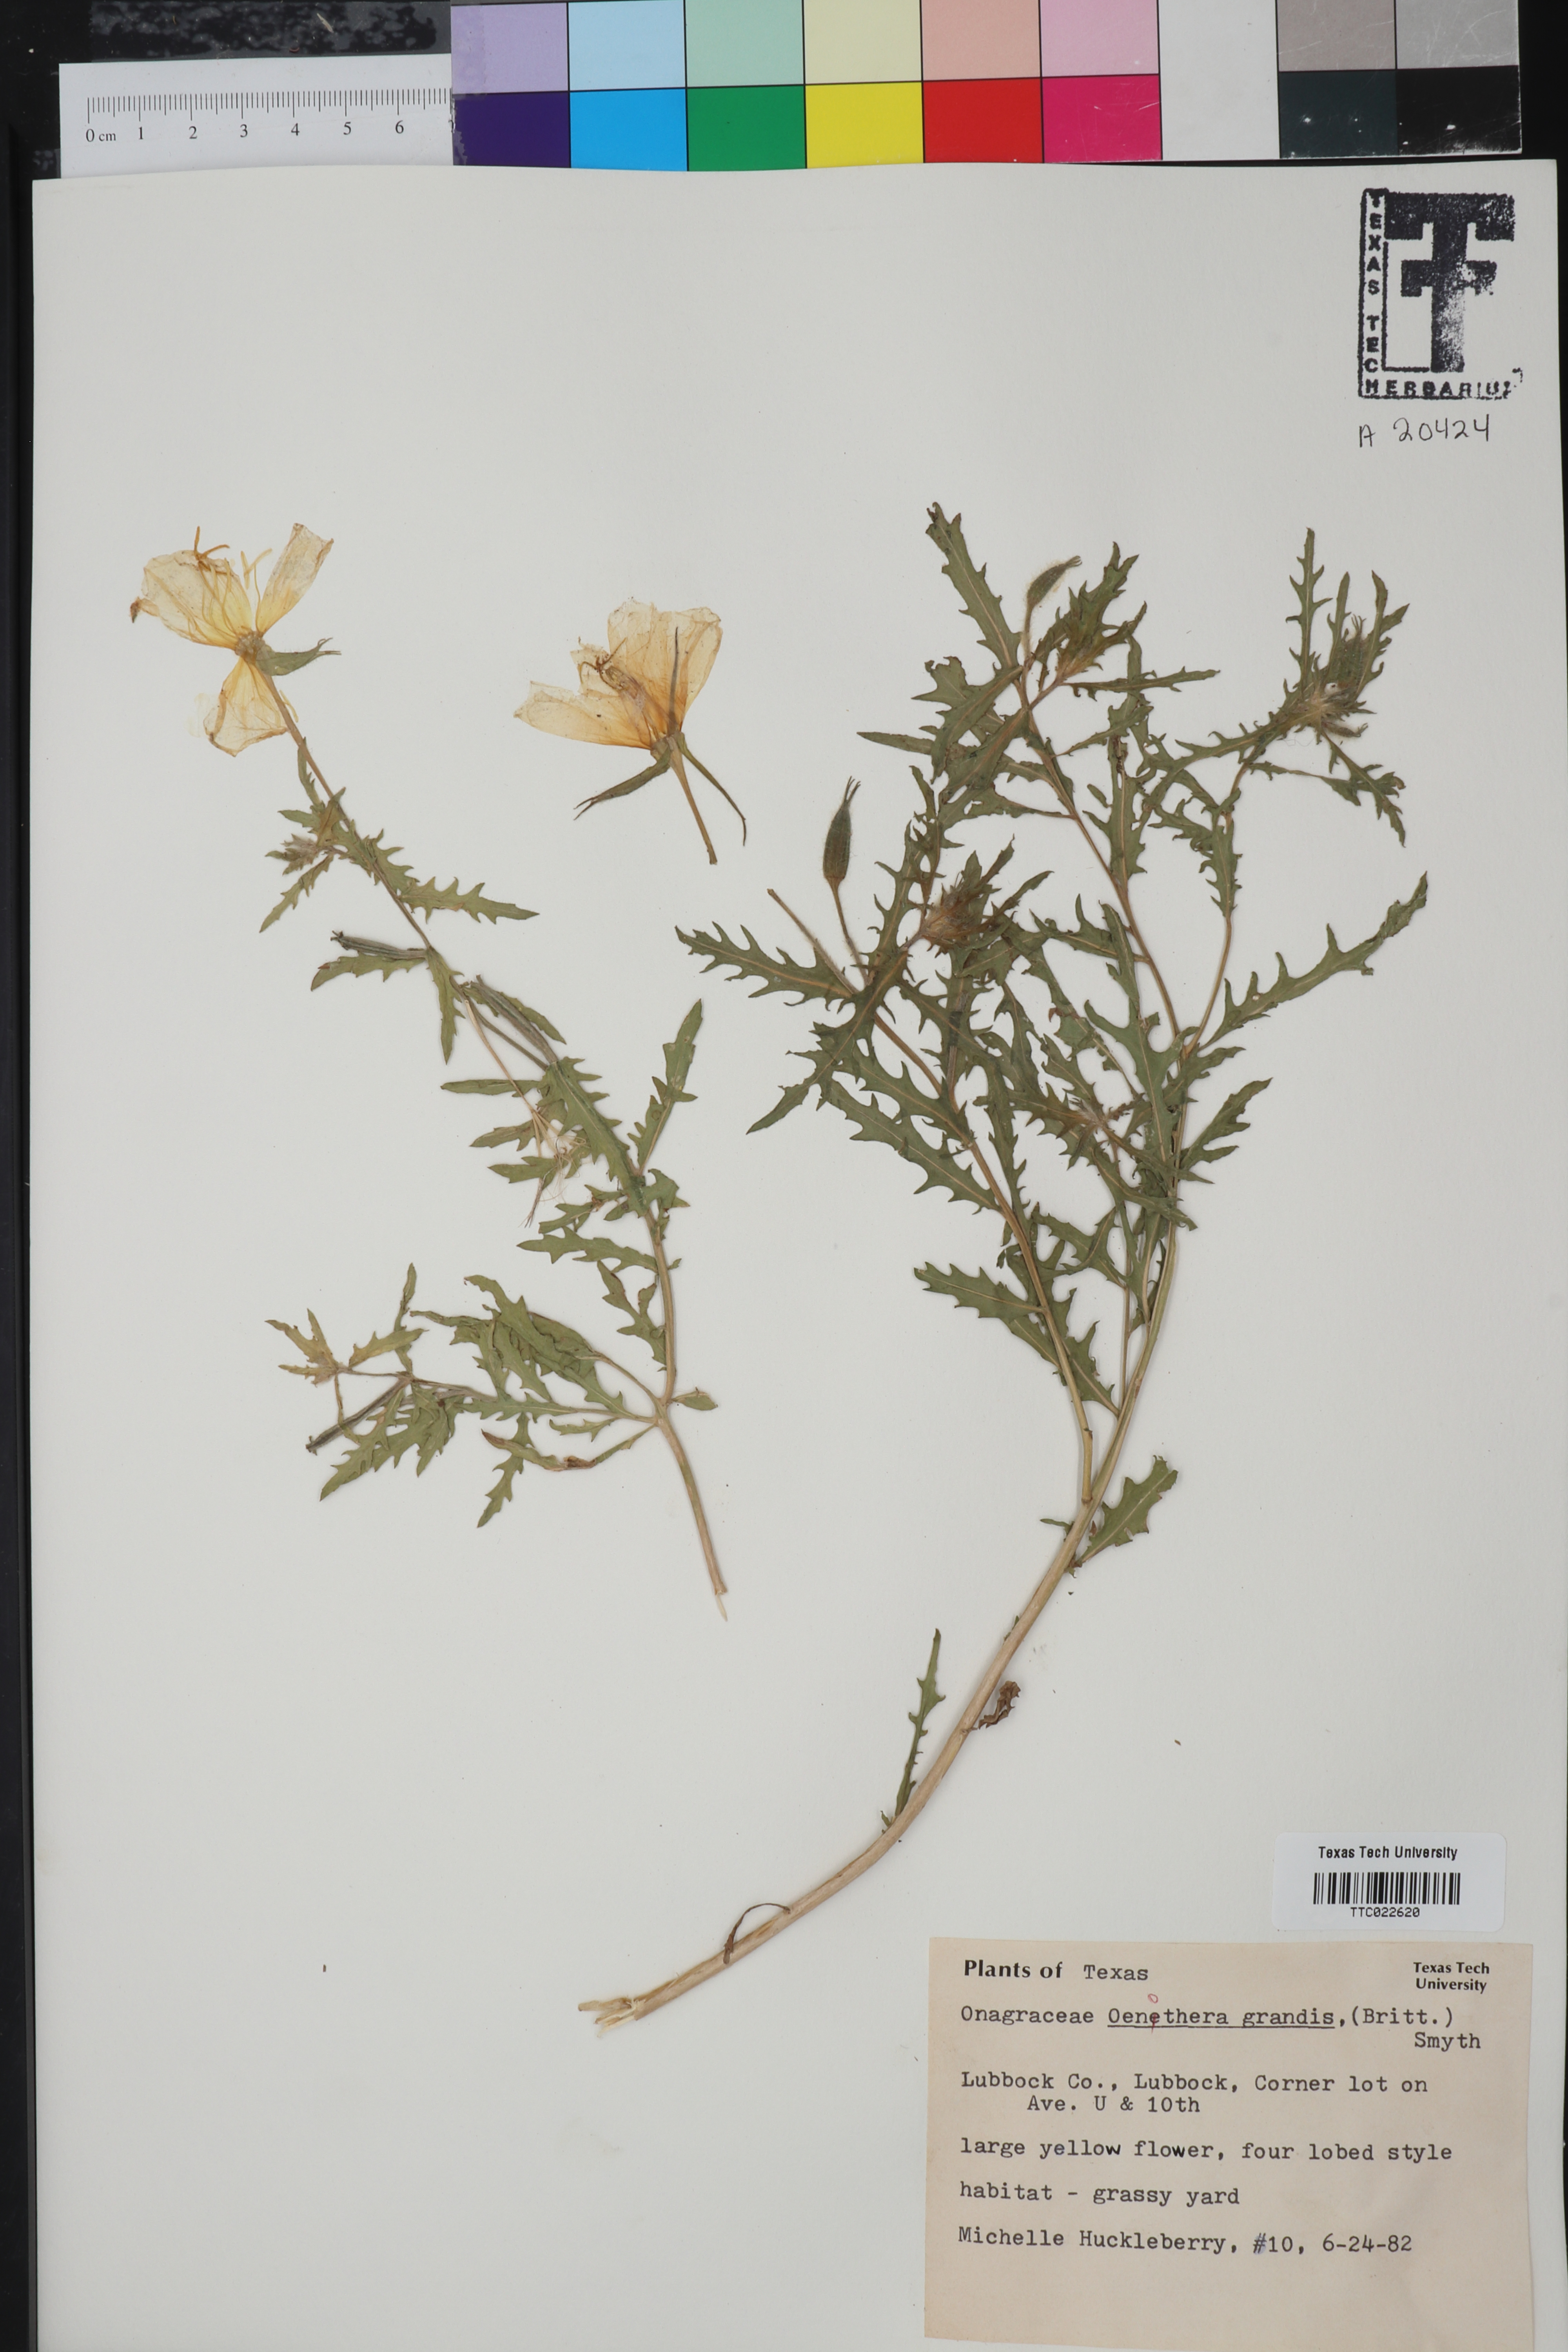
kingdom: Plantae
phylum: Tracheophyta
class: Magnoliopsida
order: Myrtales
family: Onagraceae
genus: Oenothera
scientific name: Oenothera grandis
